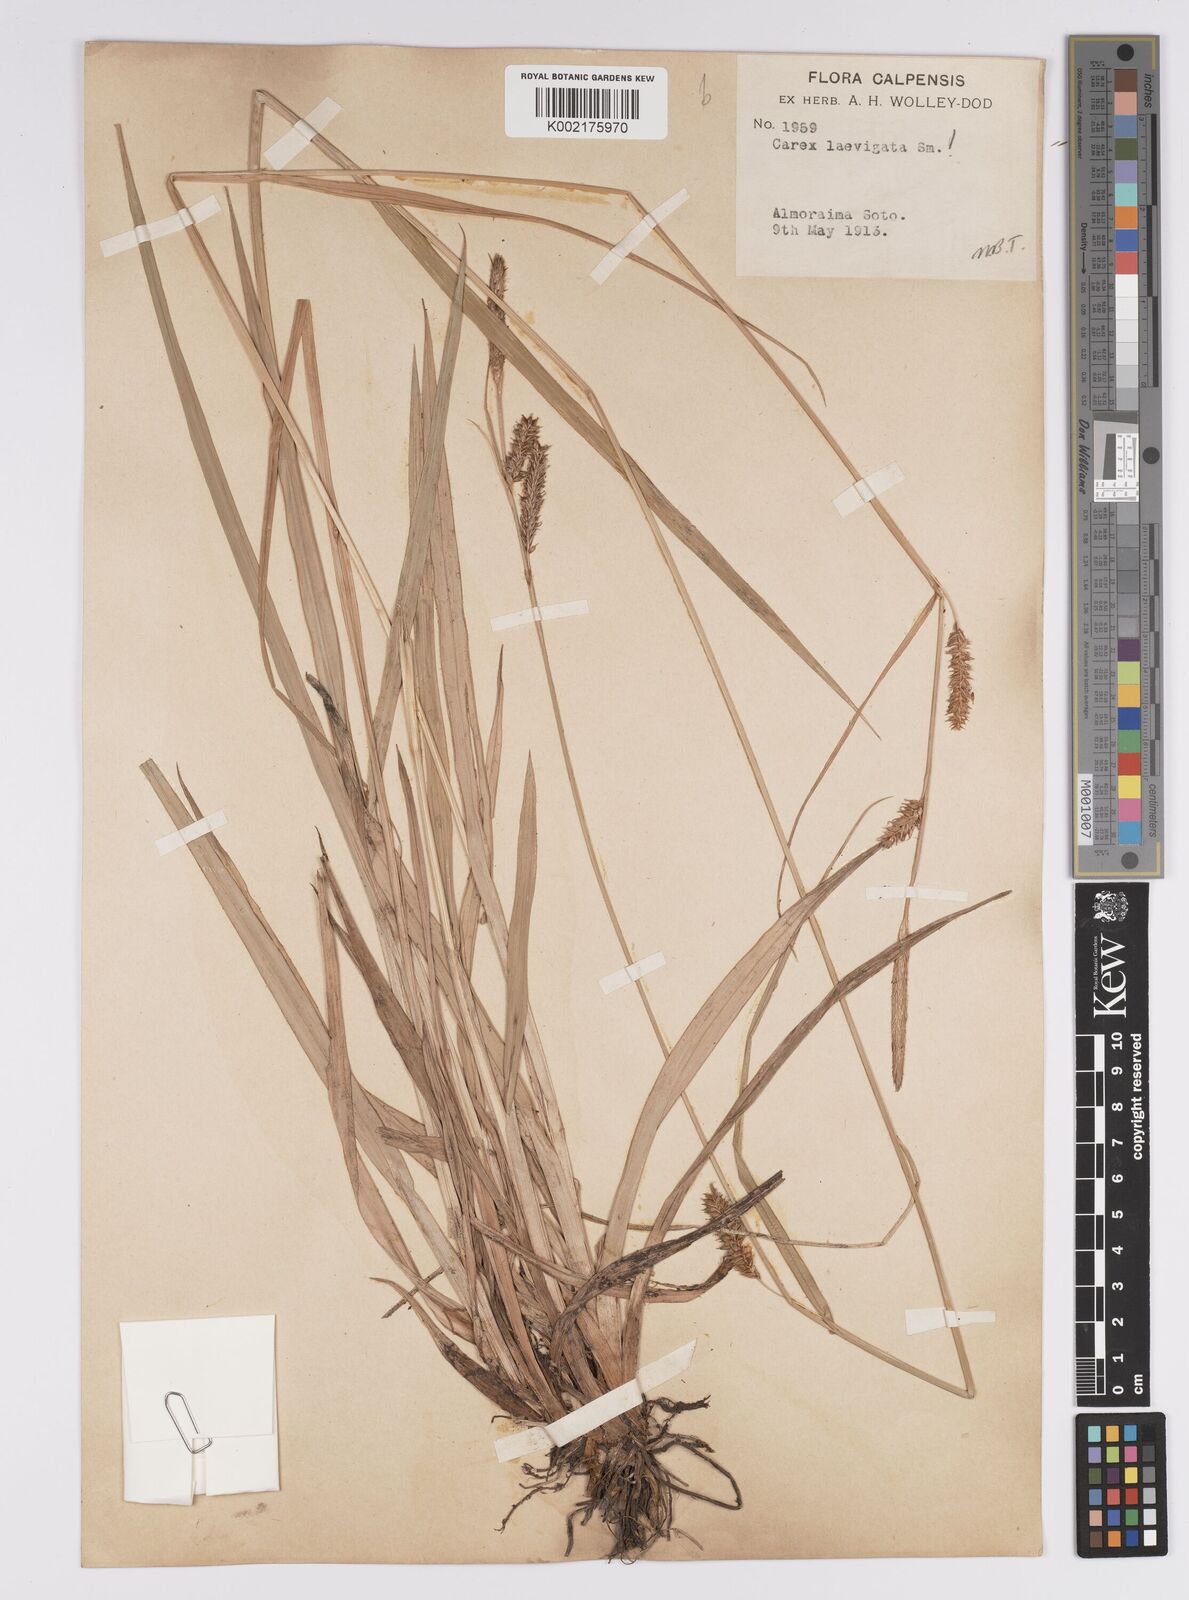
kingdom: Plantae
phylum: Tracheophyta
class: Liliopsida
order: Poales
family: Cyperaceae
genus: Carex
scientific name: Carex laevigata
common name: Smooth-stalked sedge
